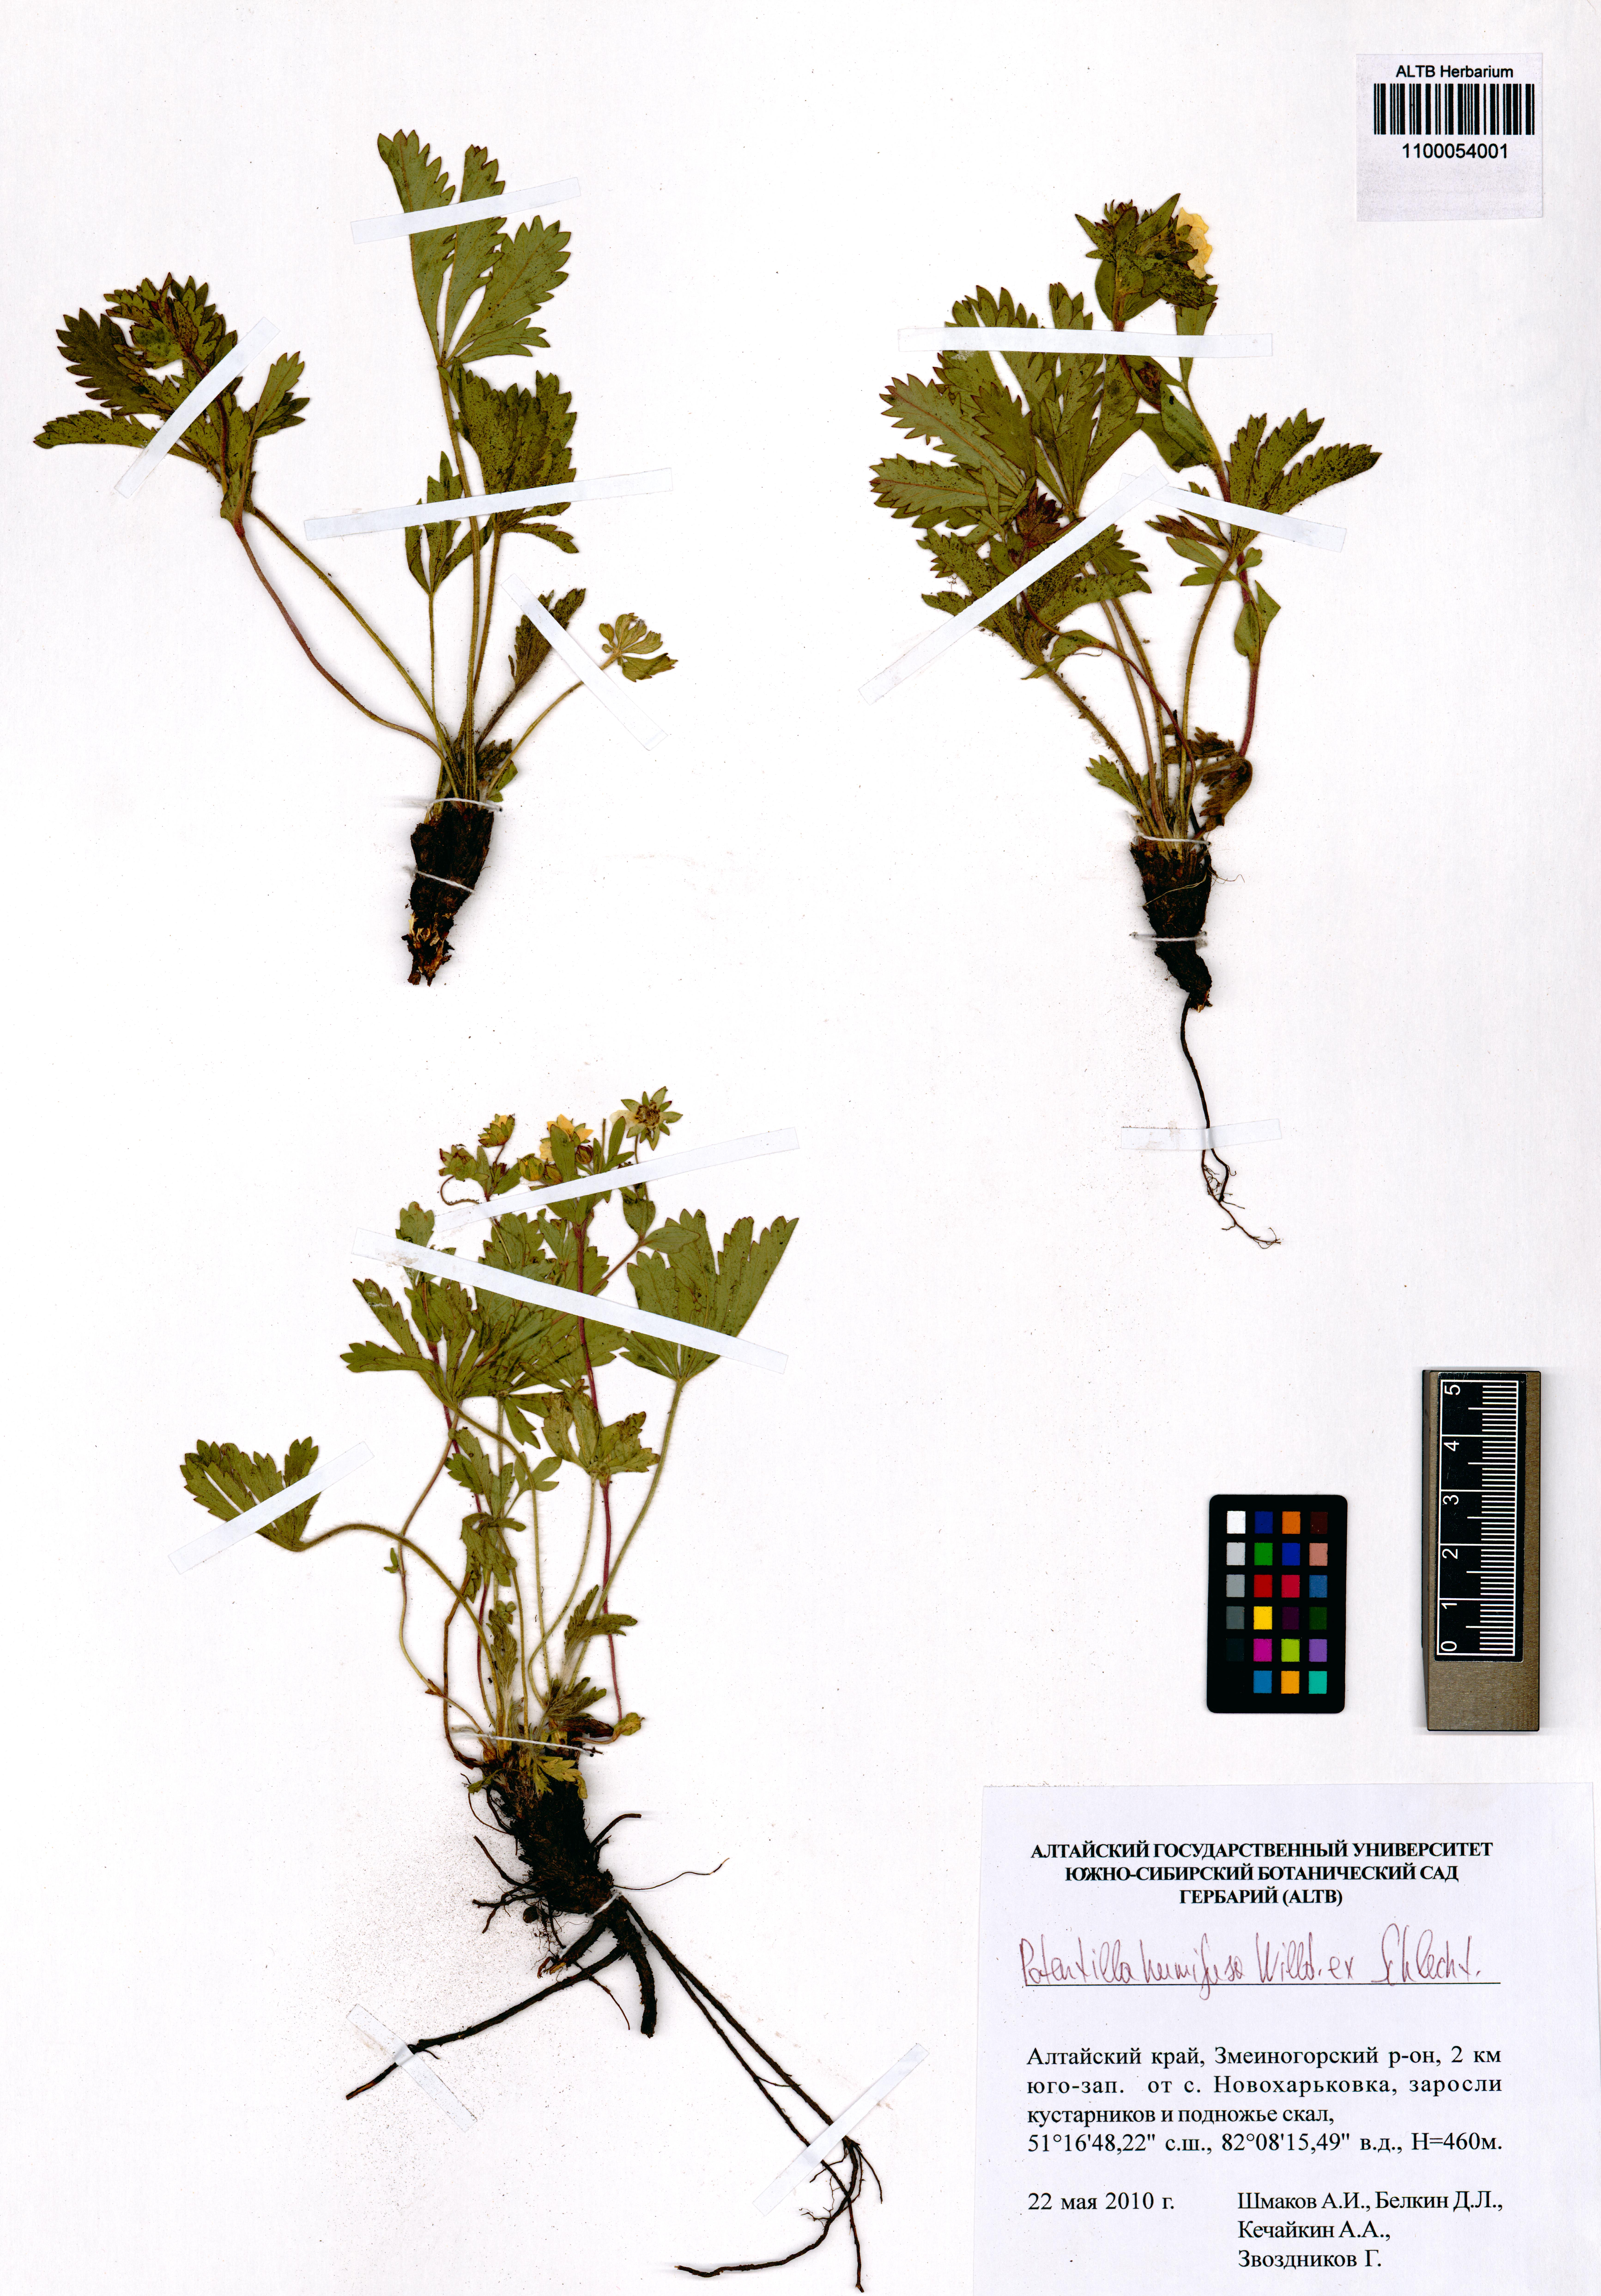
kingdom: Plantae
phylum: Tracheophyta
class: Magnoliopsida
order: Rosales
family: Rosaceae
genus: Potentilla
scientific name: Potentilla humifusa
